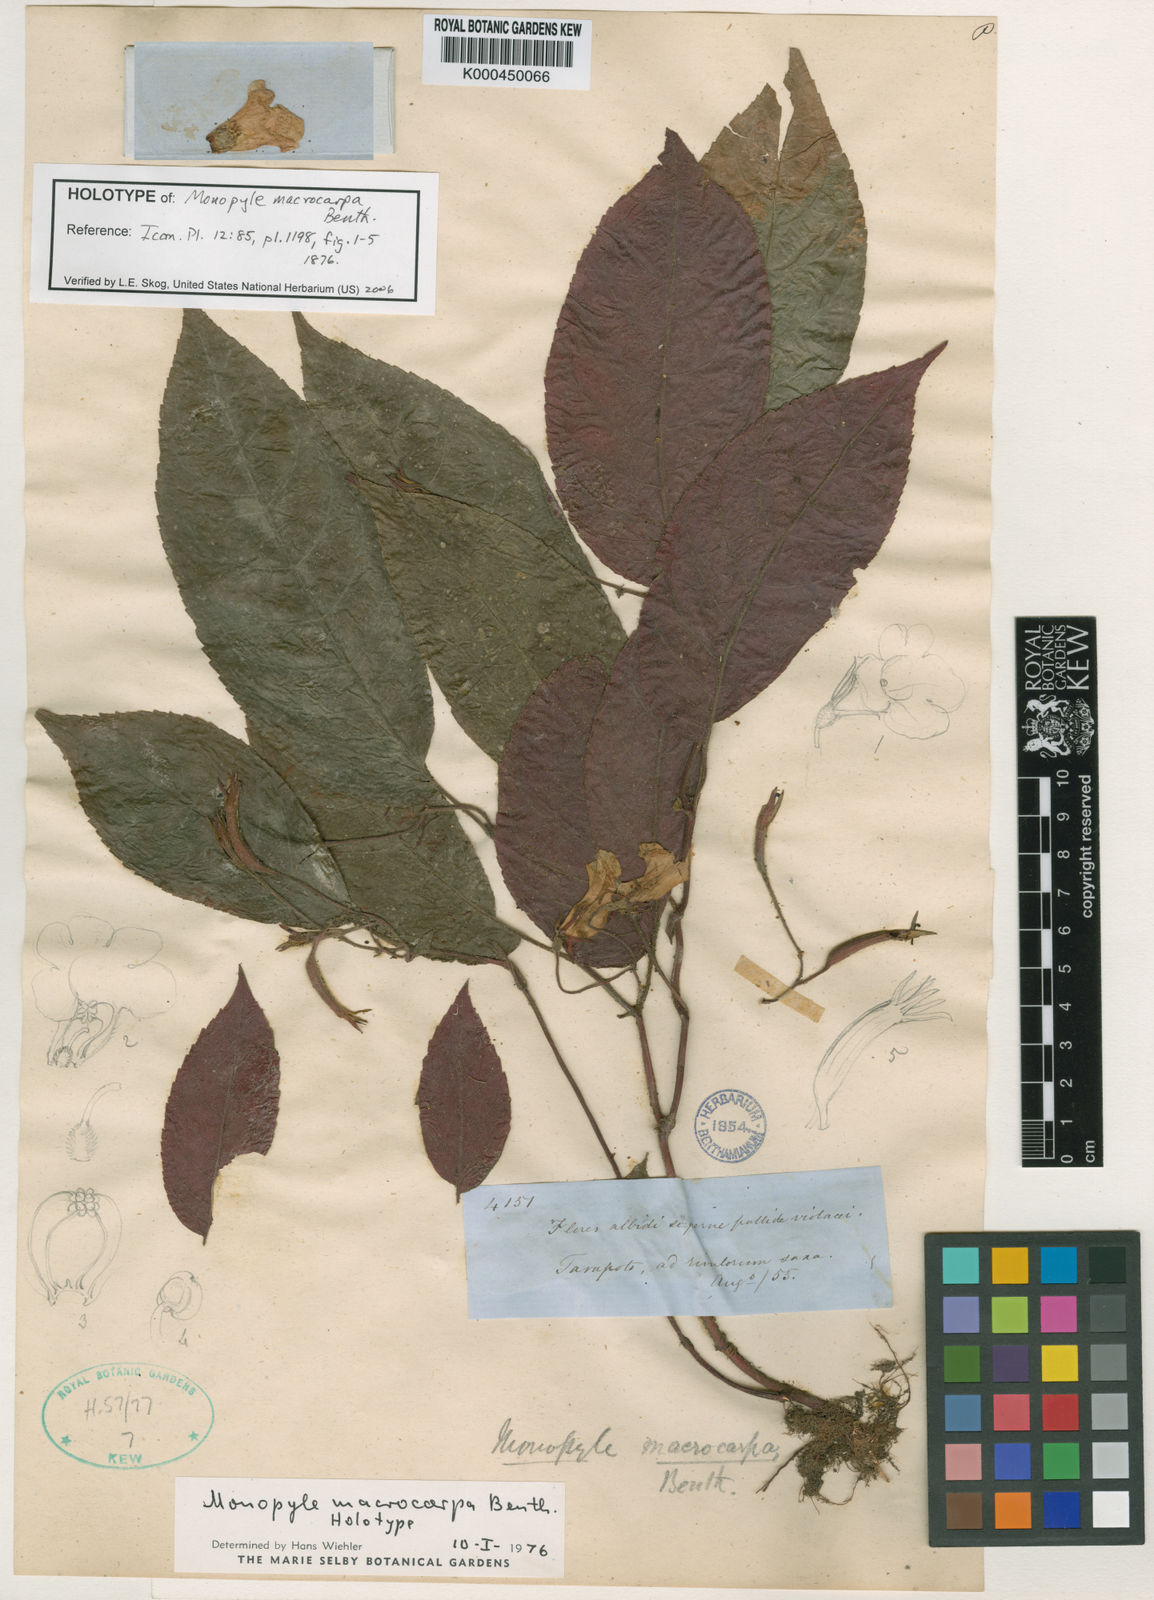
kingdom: Plantae
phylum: Tracheophyta
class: Magnoliopsida
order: Lamiales
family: Gesneriaceae
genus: Monopyle
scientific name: Monopyle macrocarpa
